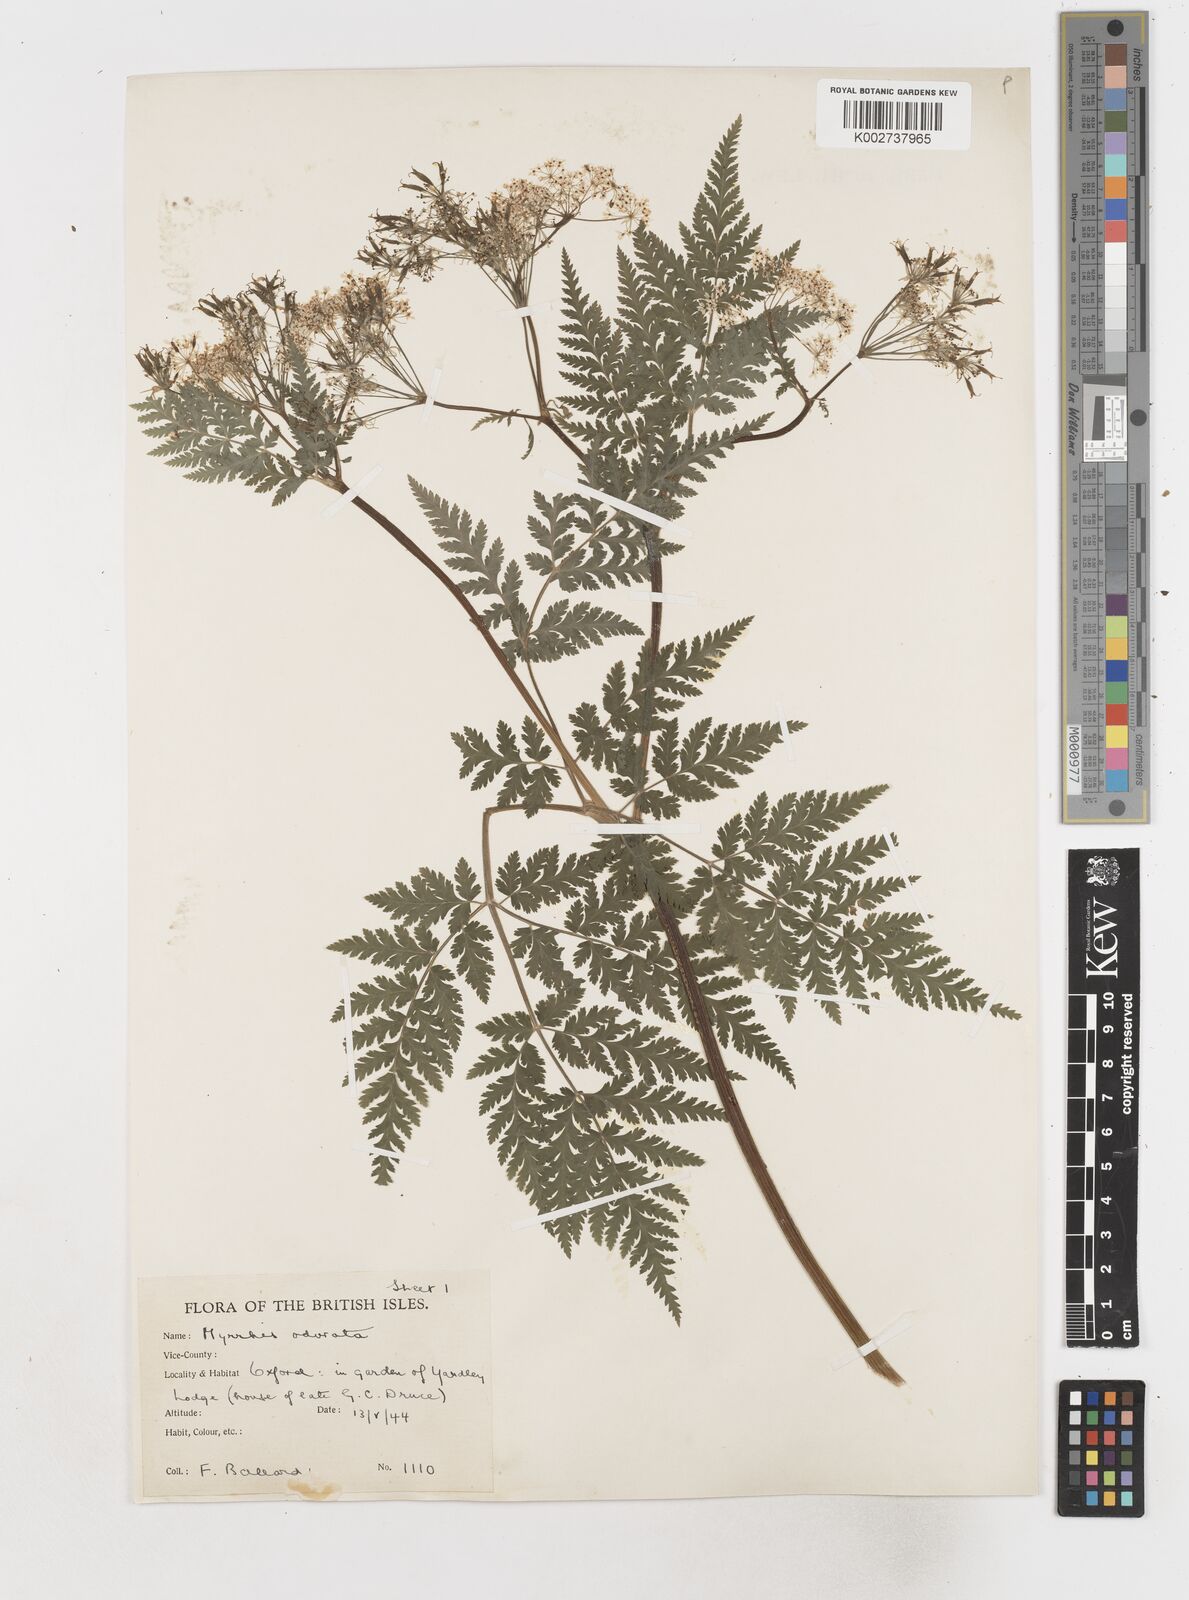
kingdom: Plantae
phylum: Tracheophyta
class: Magnoliopsida
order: Apiales
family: Apiaceae
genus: Myrrhis
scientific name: Myrrhis odorata
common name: Sweet cicely
